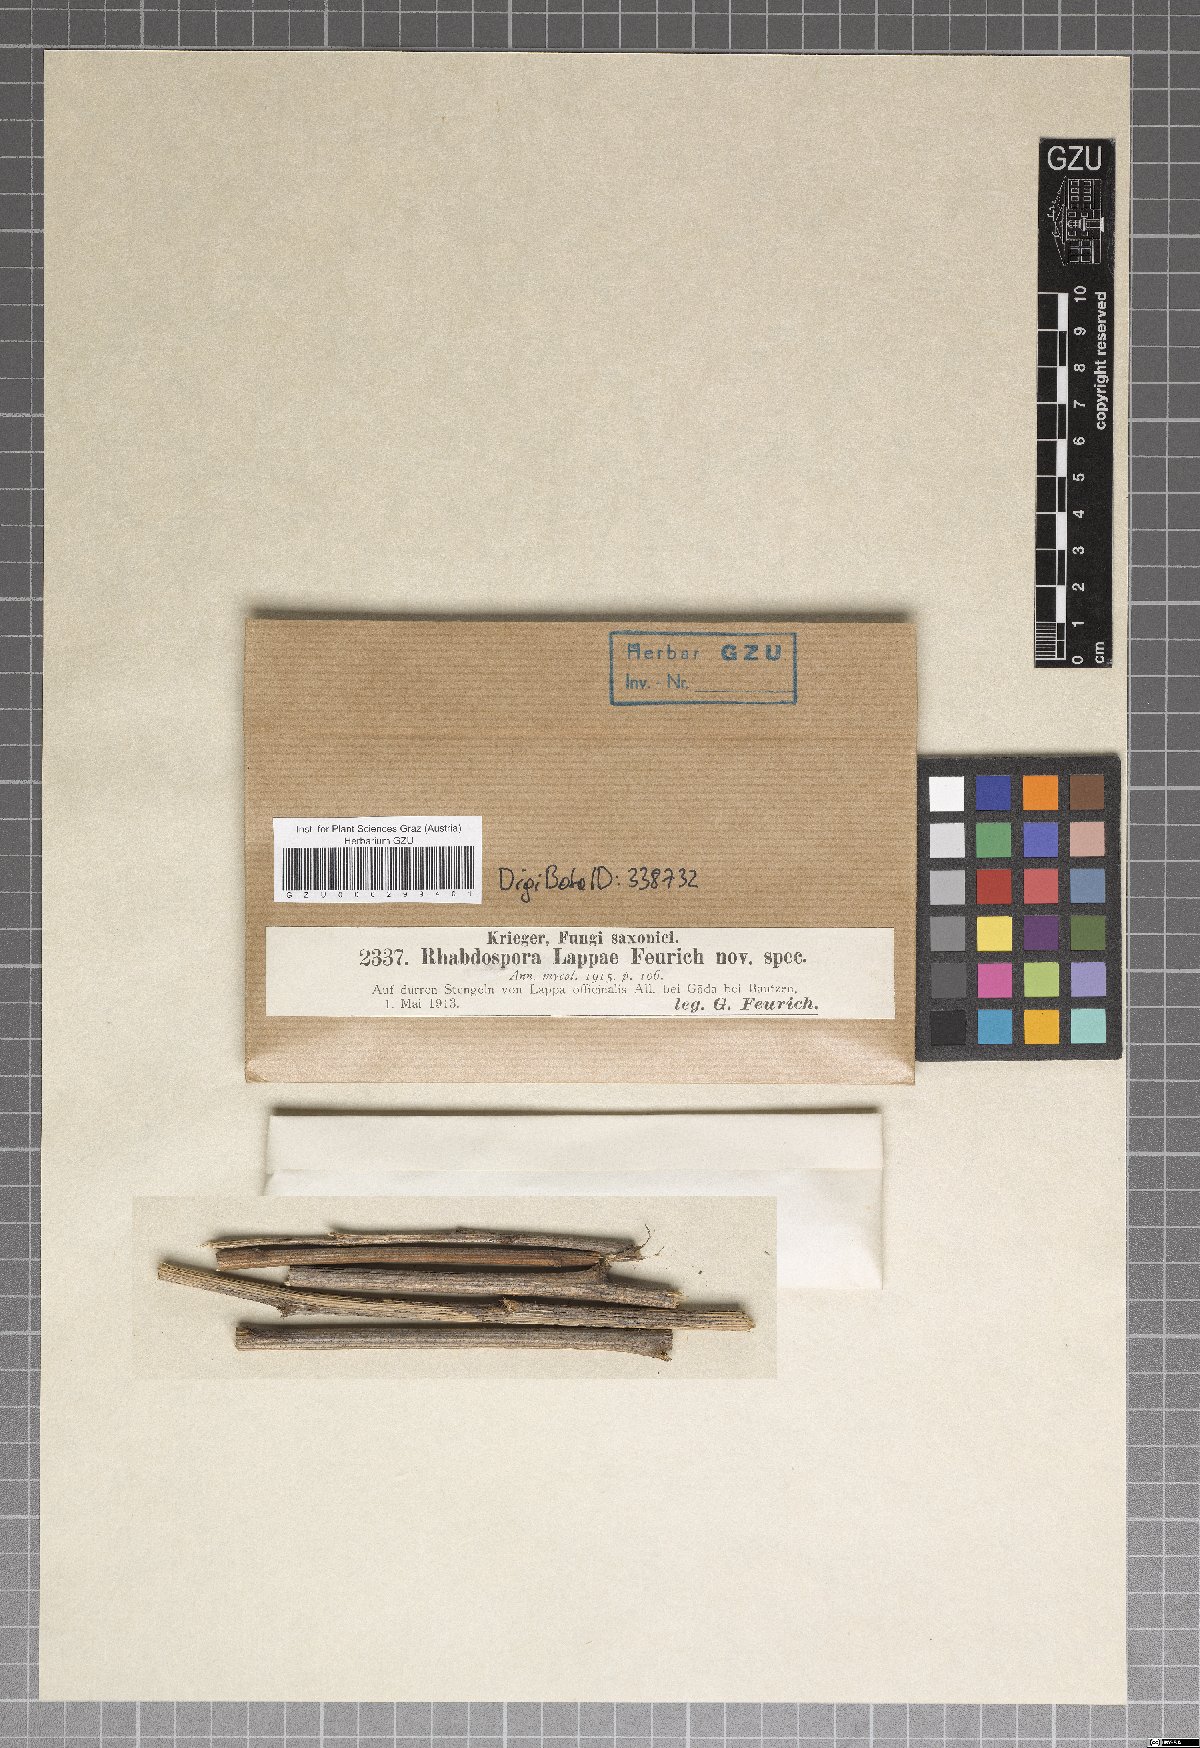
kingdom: Fungi
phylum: Ascomycota
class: Dothideomycetes
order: Mycosphaerellales
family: Mycosphaerellaceae
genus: Rhabdospora
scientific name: Rhabdospora
